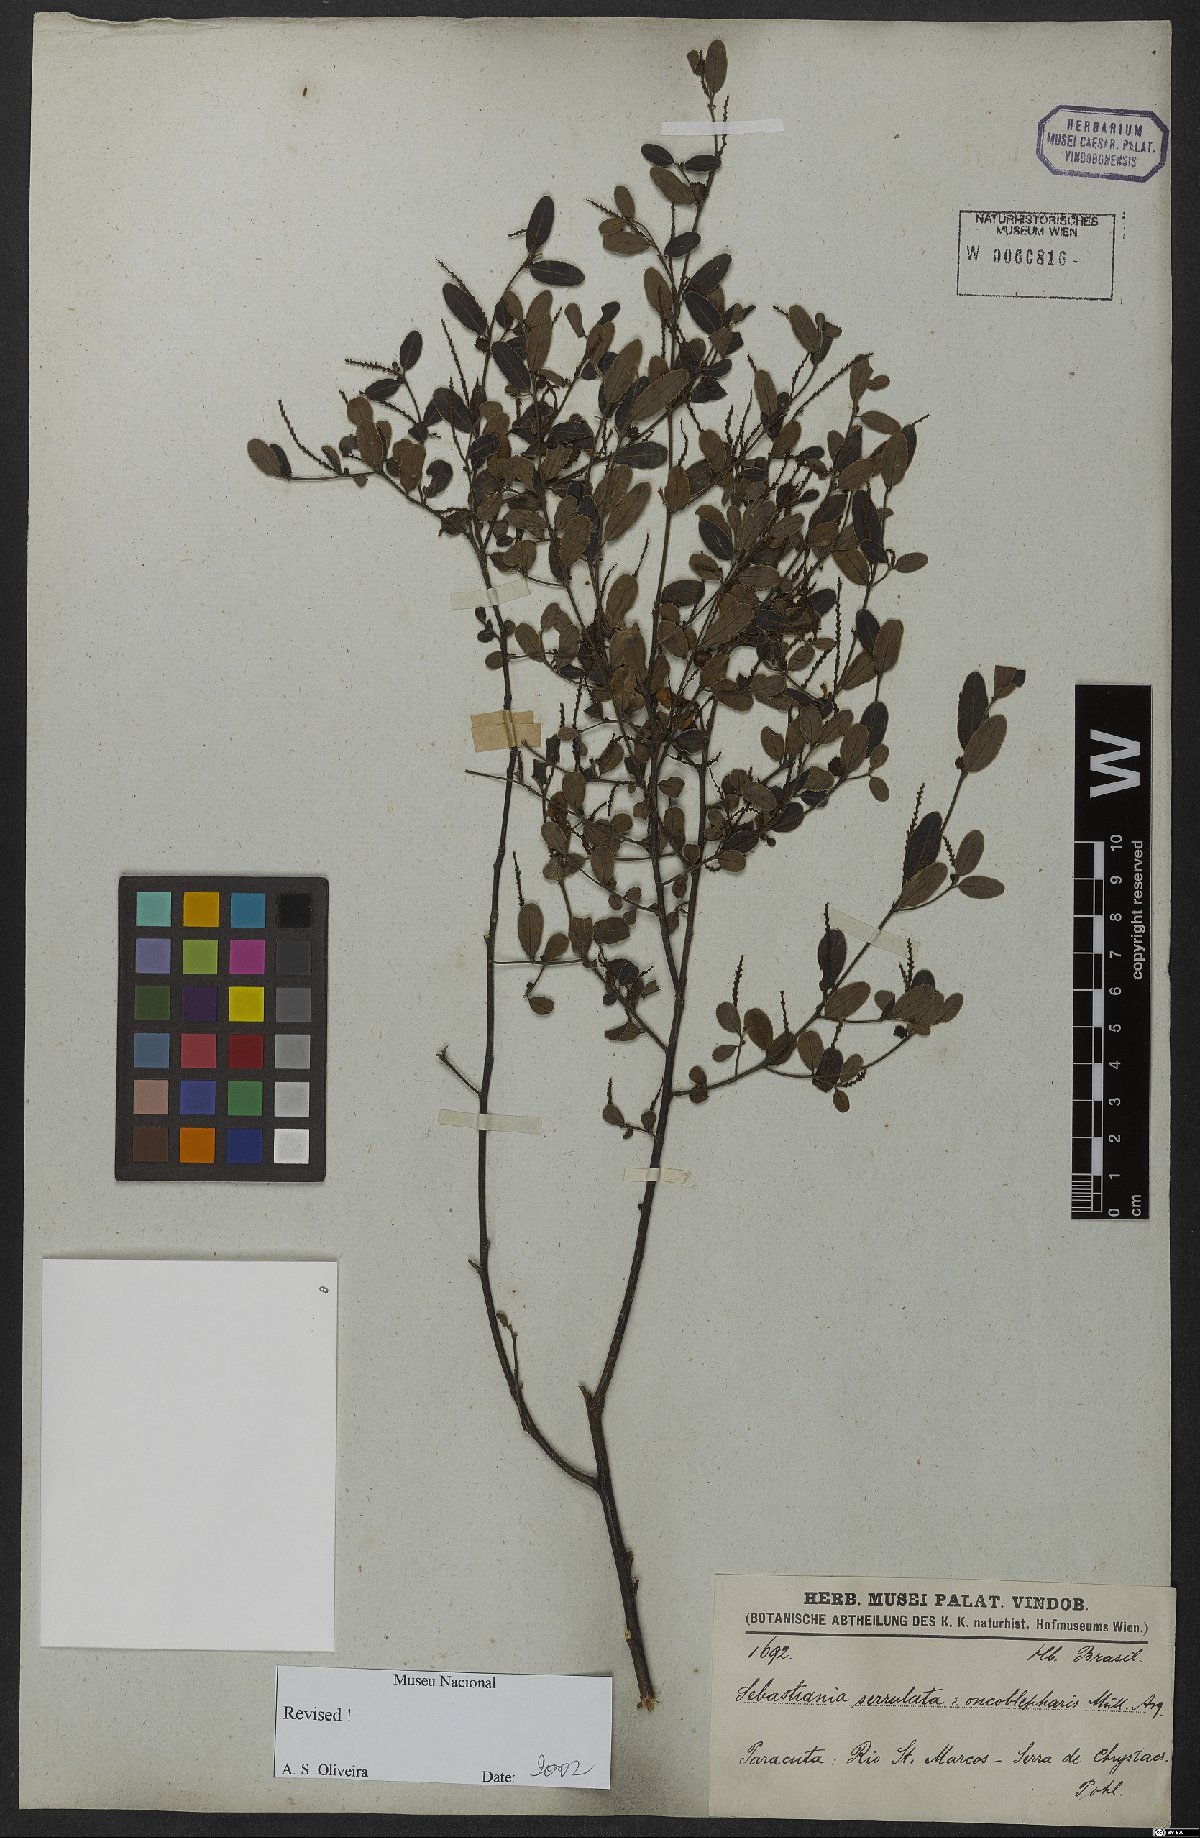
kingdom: Plantae
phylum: Tracheophyta
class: Magnoliopsida
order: Malpighiales
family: Euphorbiaceae
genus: Microstachys
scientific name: Microstachys serrulata
